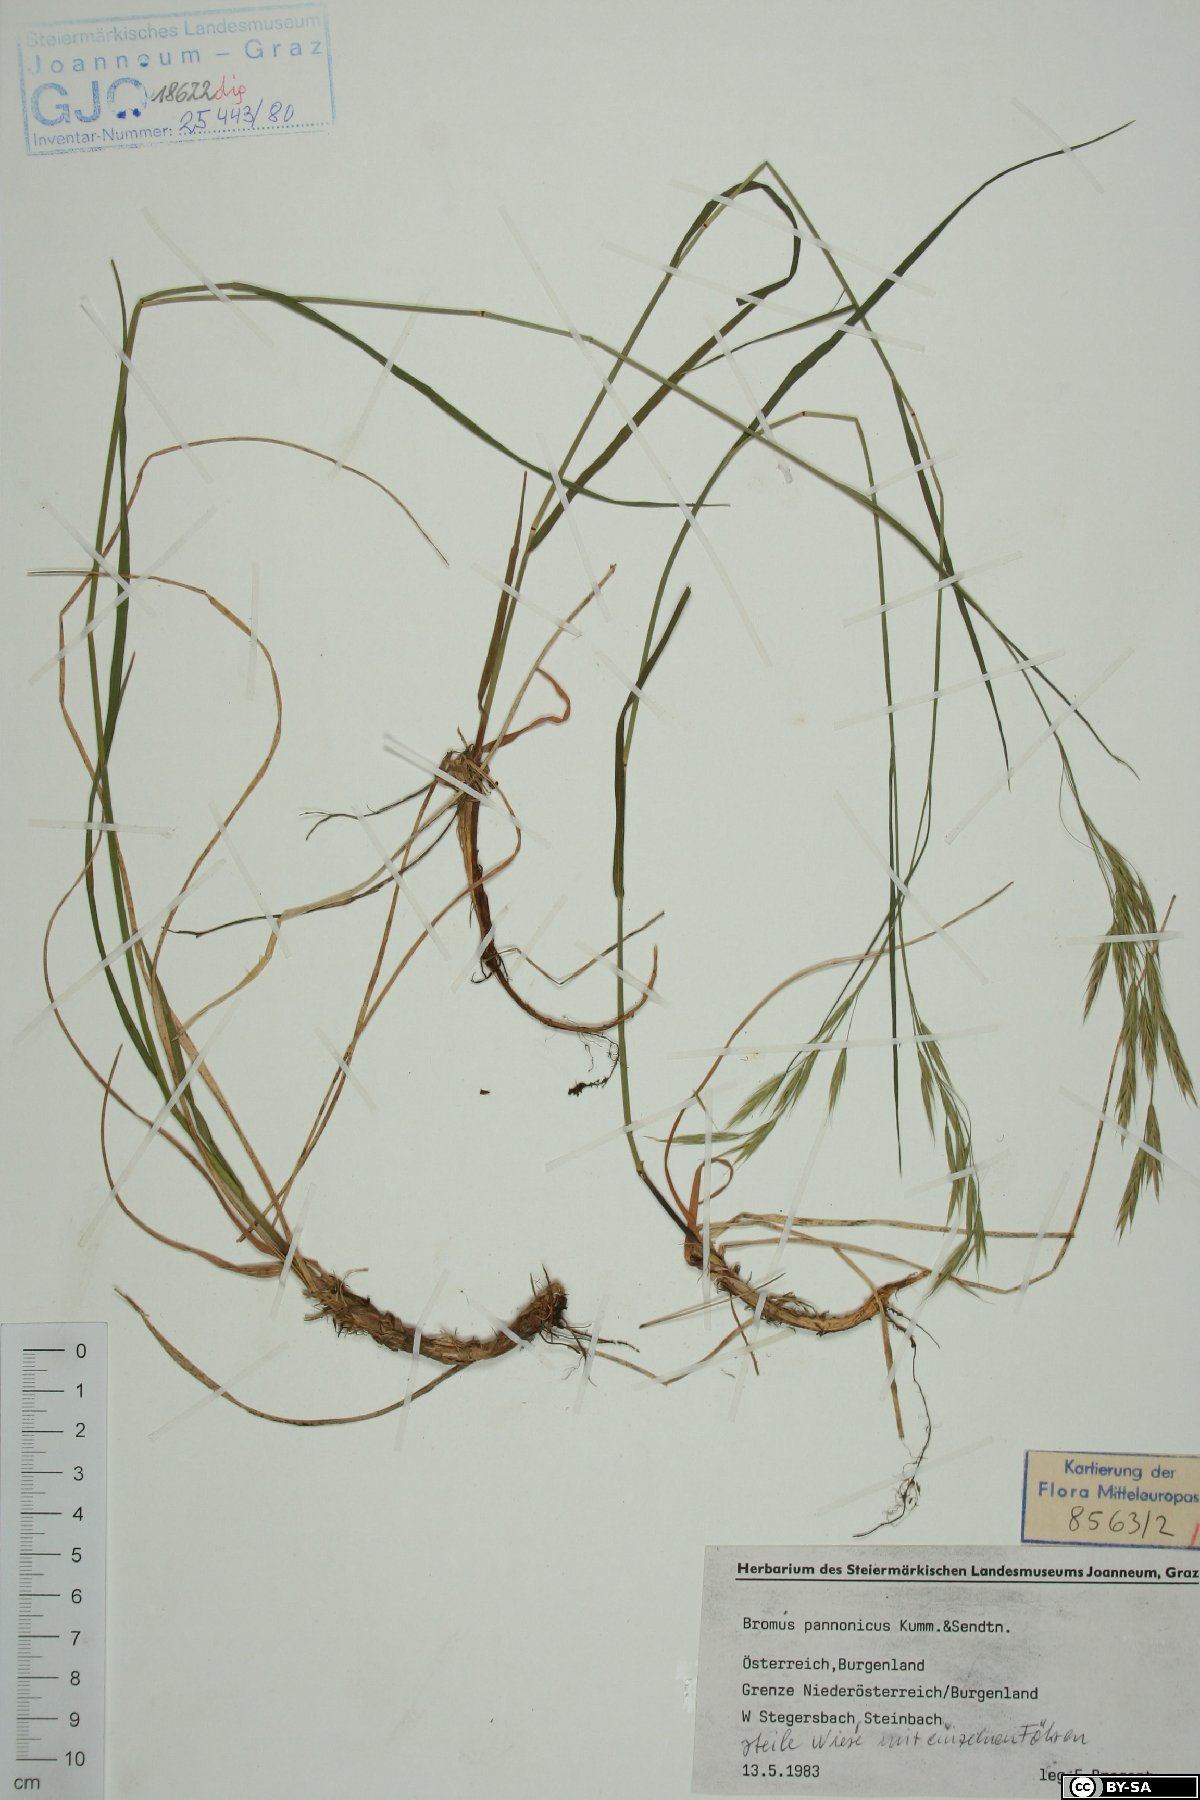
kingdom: Plantae
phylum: Tracheophyta
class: Liliopsida
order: Poales
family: Poaceae
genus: Bromus
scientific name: Bromus pannonicus
